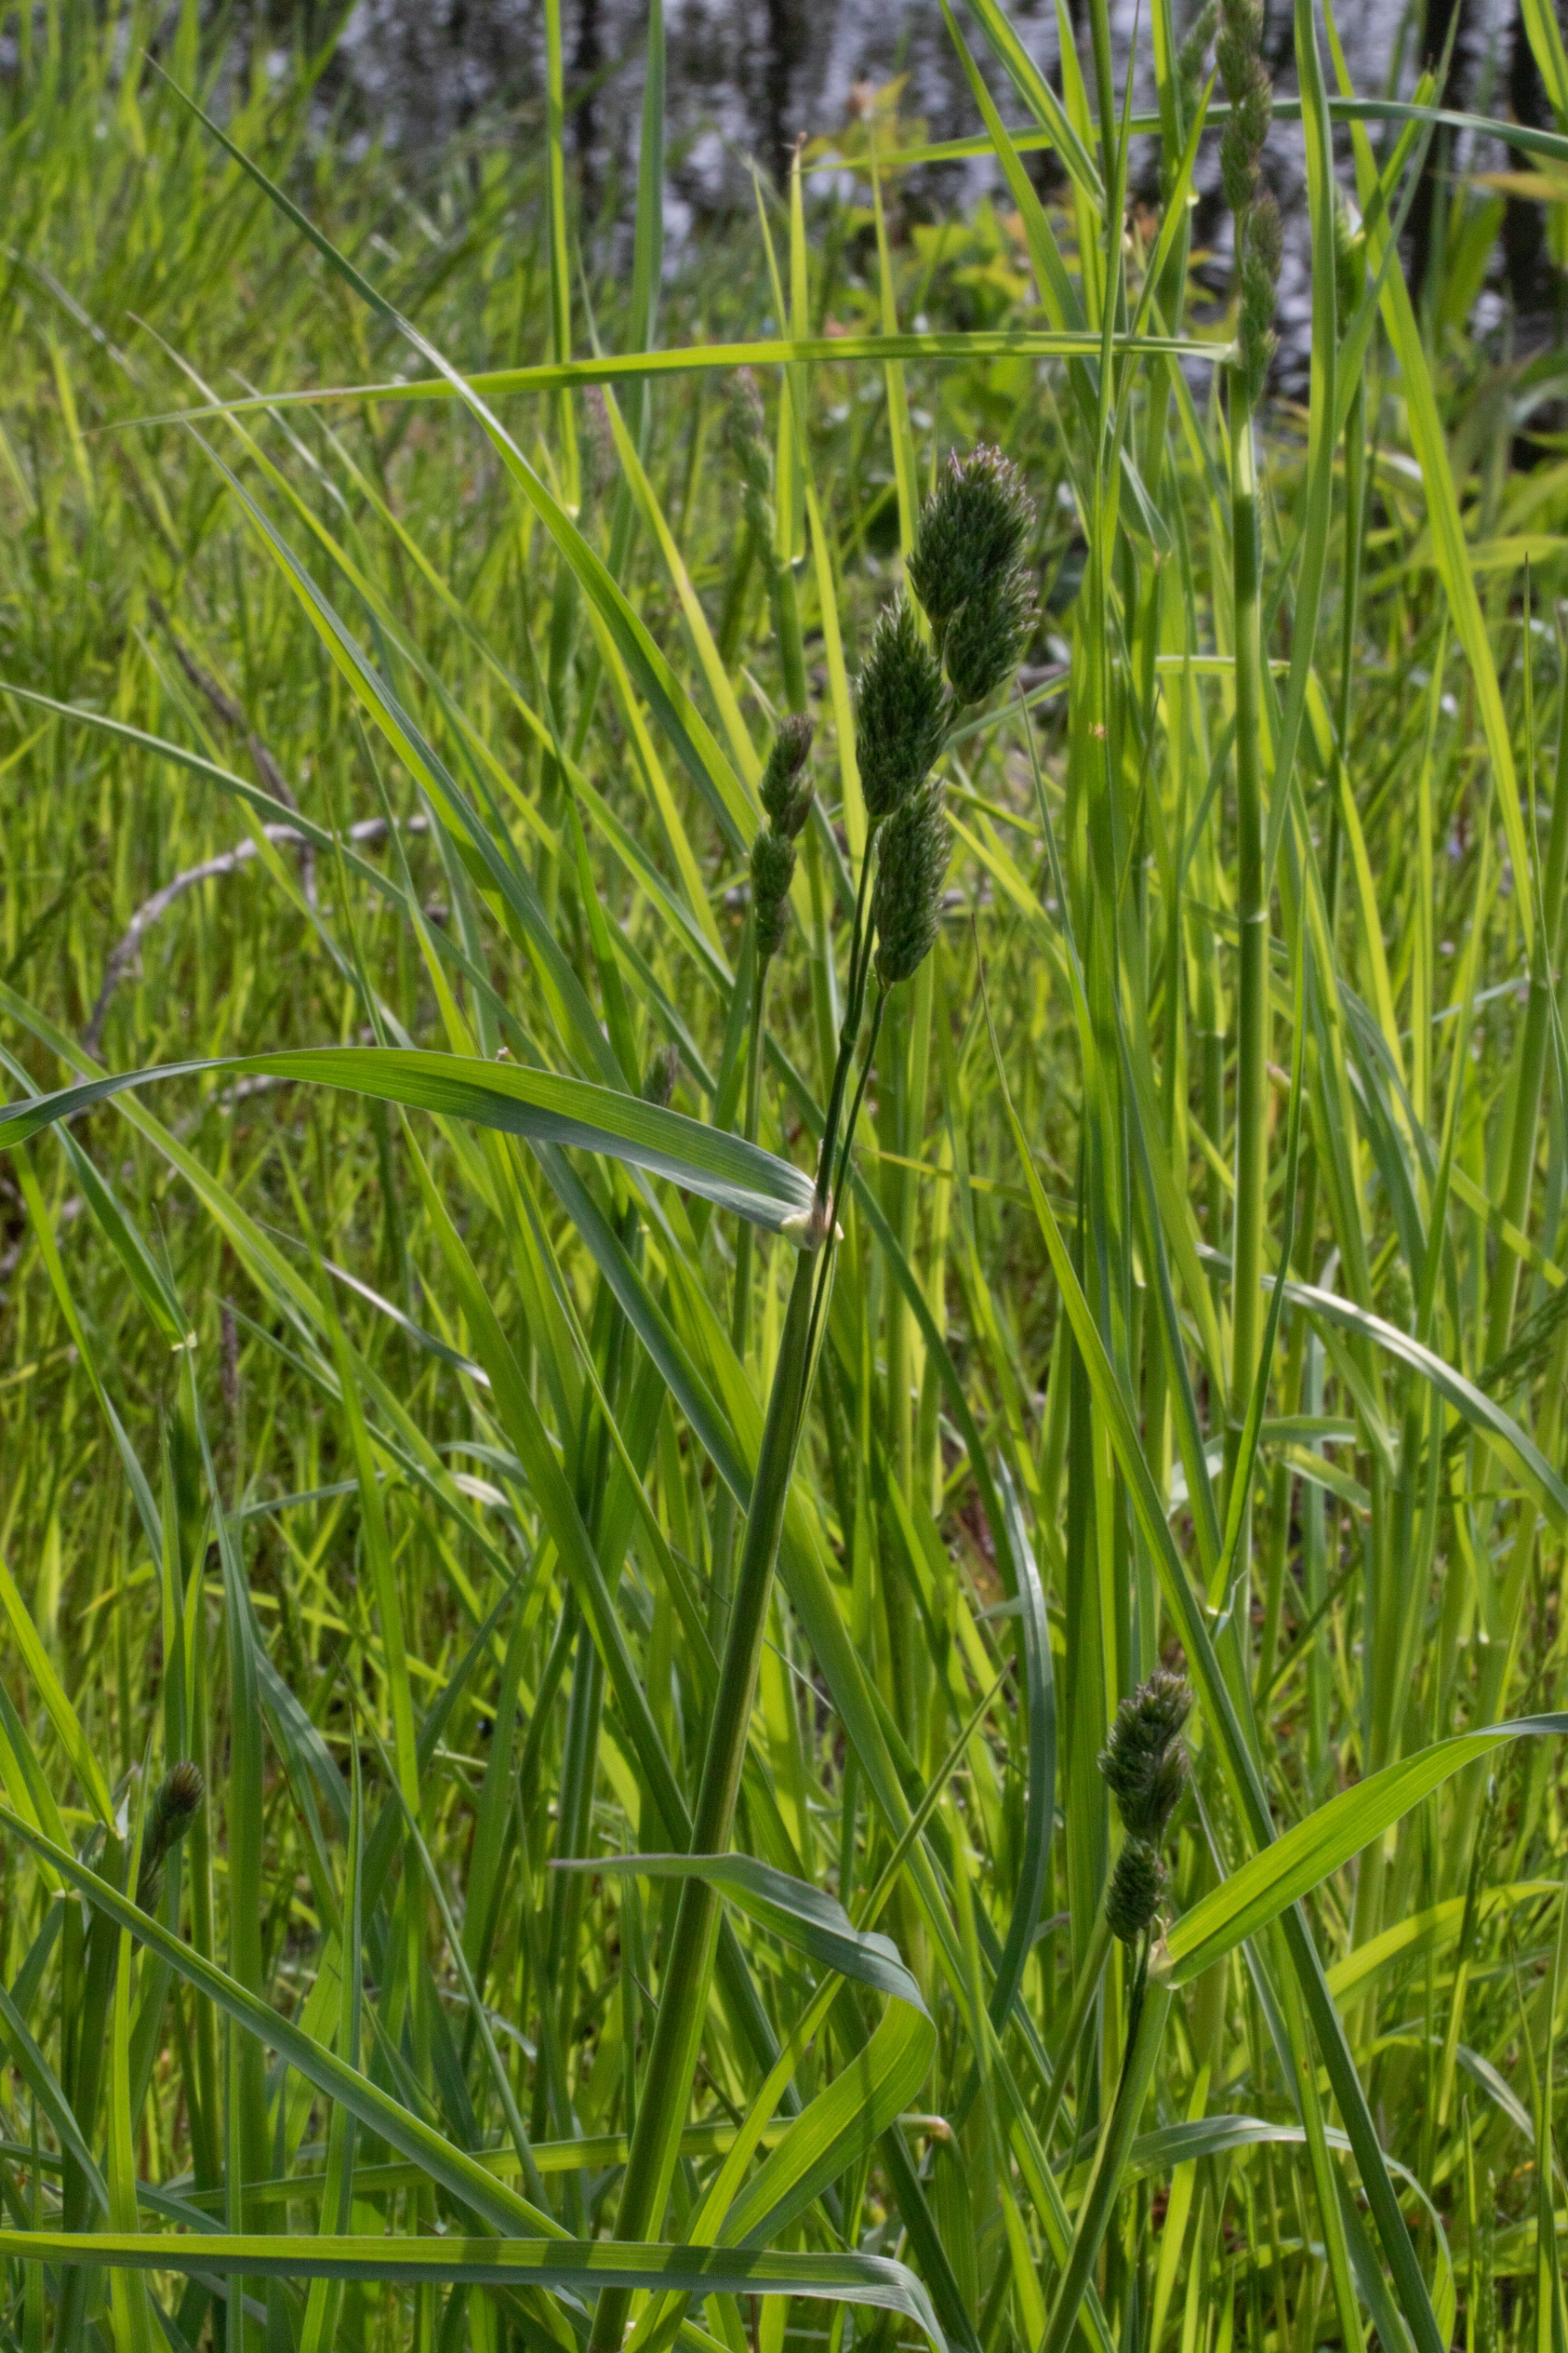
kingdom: Plantae
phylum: Tracheophyta
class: Liliopsida
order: Poales
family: Poaceae
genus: Dactylis
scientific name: Dactylis glomerata
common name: Almindelig hundegræs
